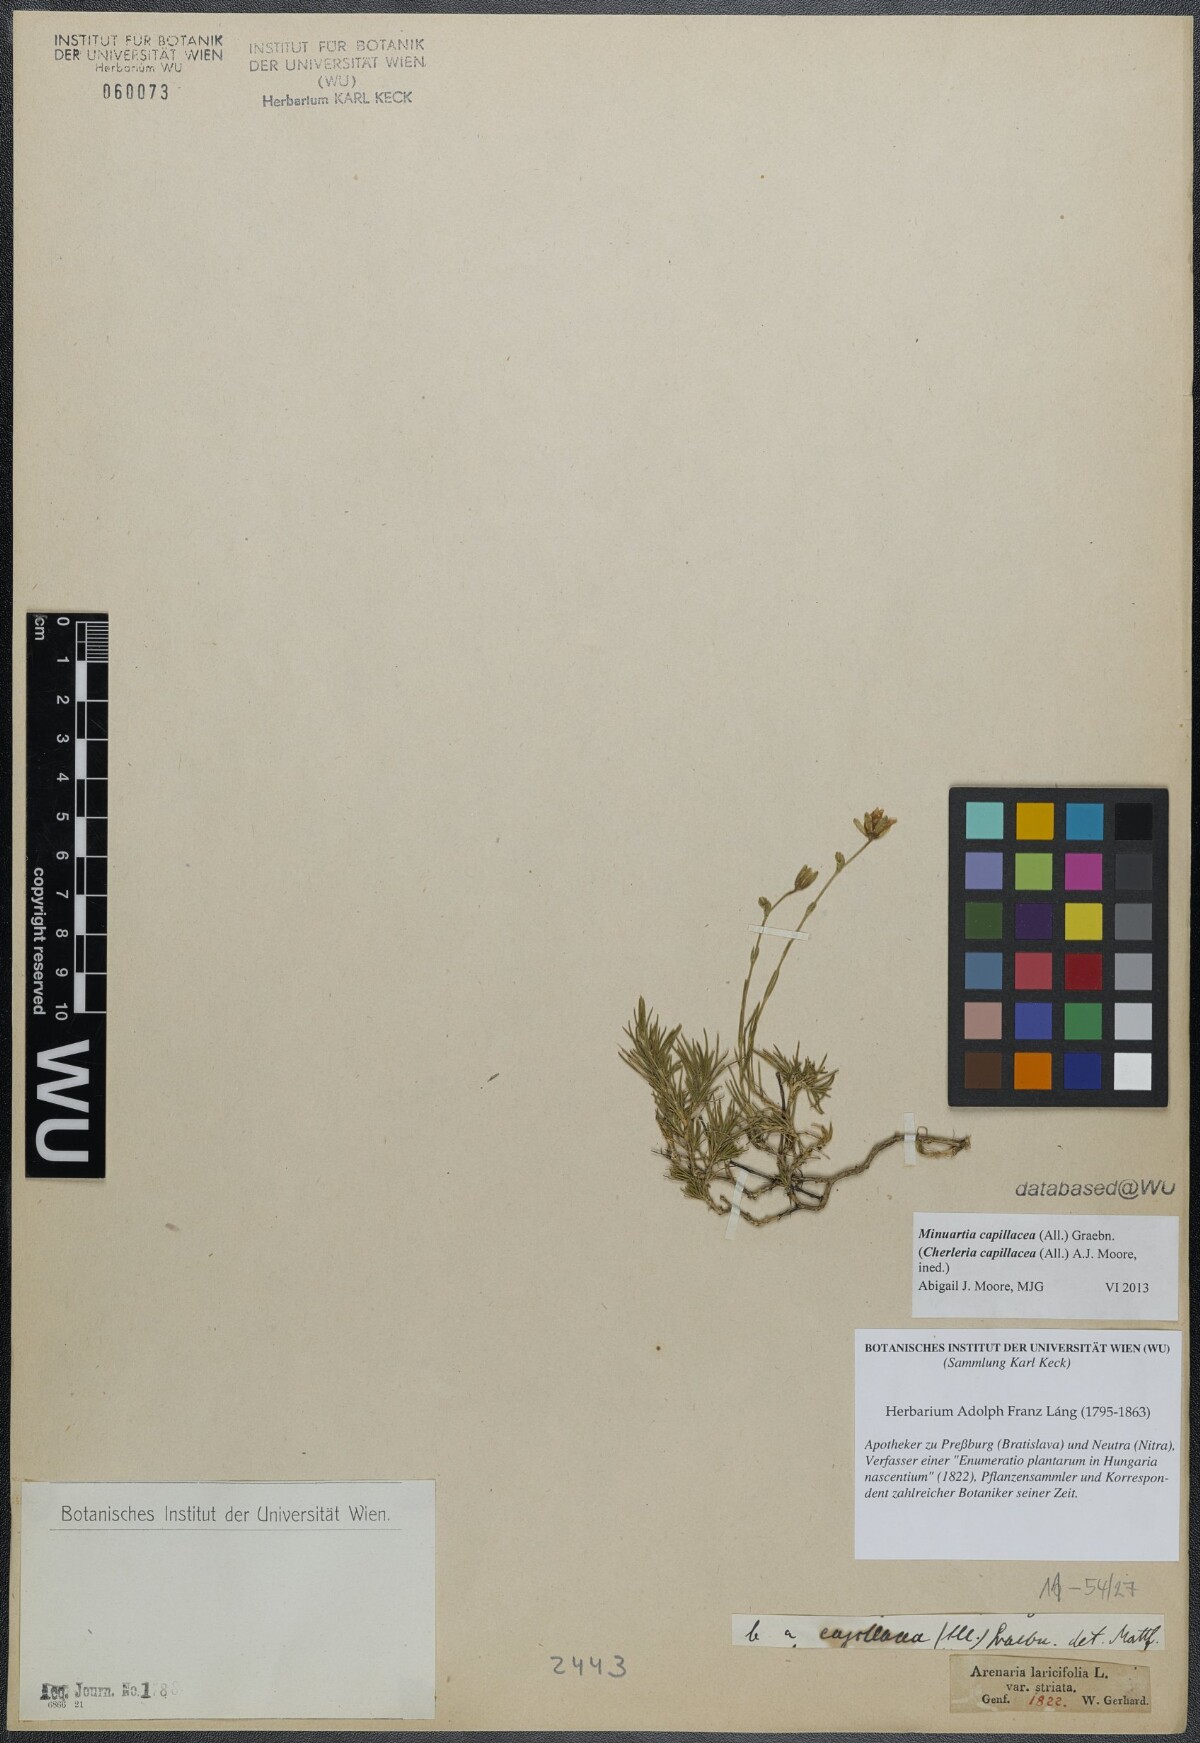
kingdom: Plantae
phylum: Tracheophyta
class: Magnoliopsida
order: Caryophyllales
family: Caryophyllaceae
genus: Cherleria
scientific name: Cherleria capillacea
